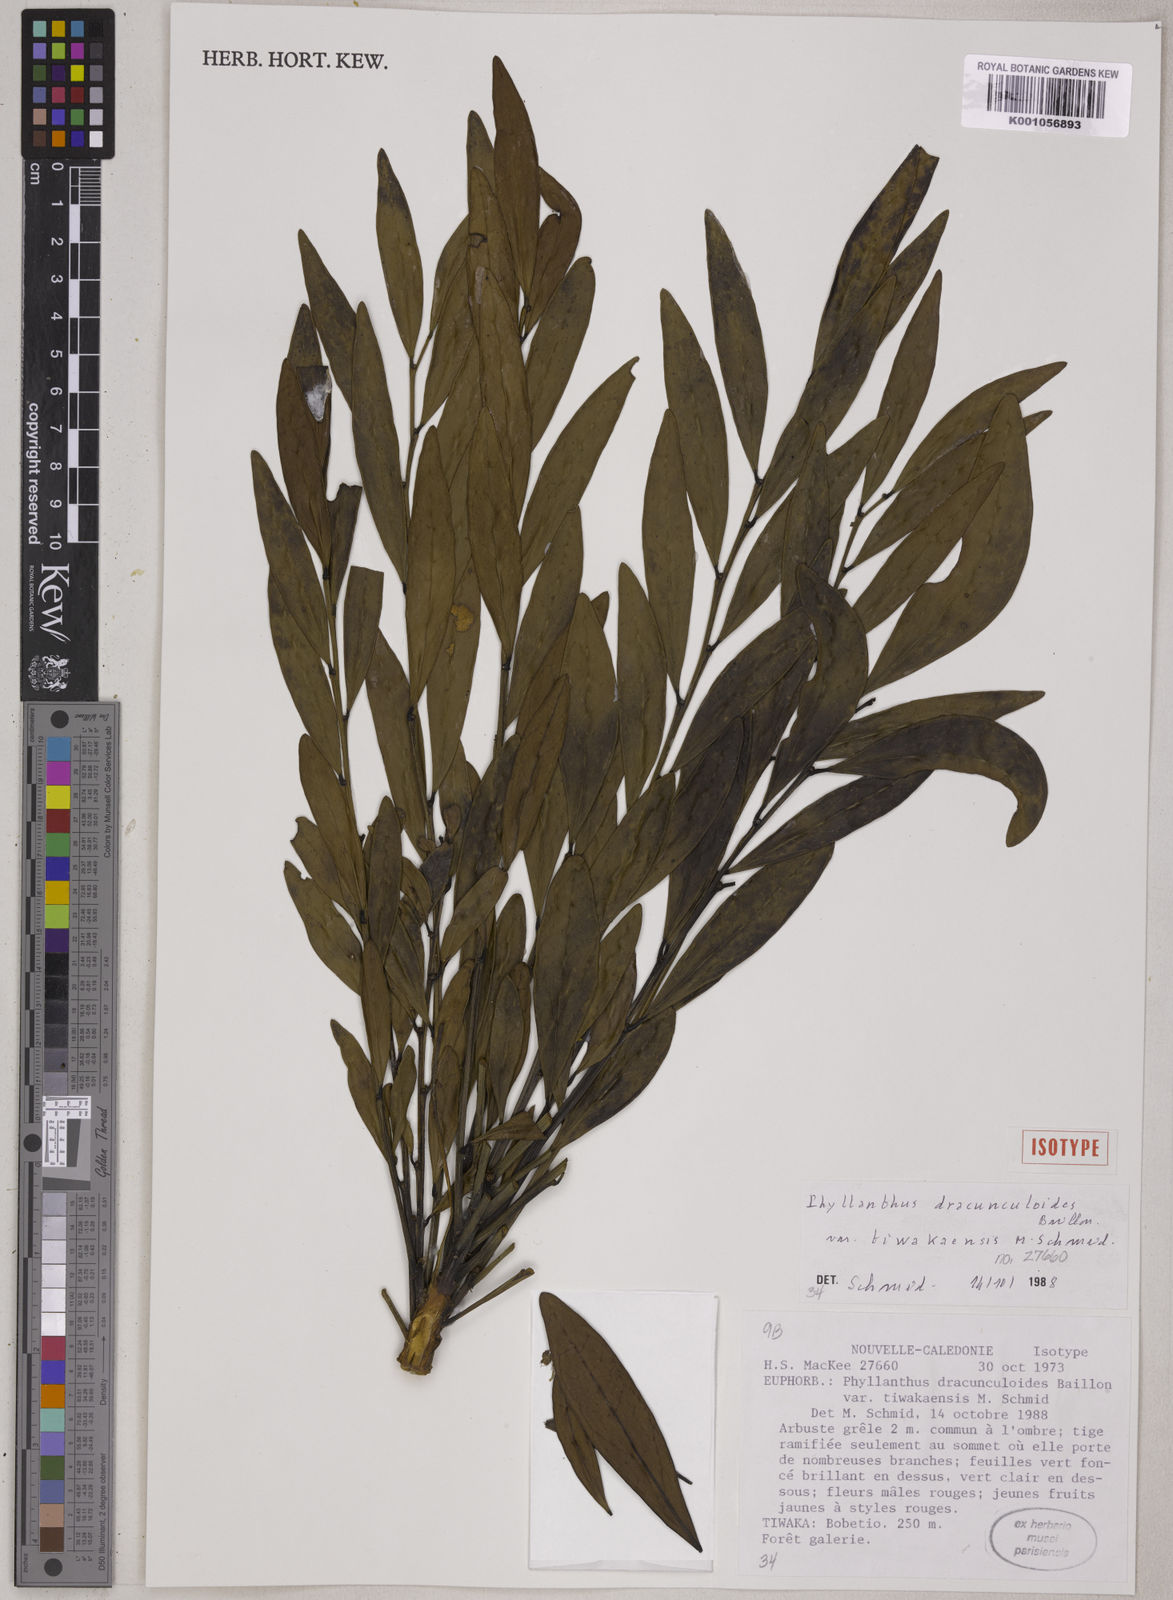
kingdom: Plantae
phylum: Tracheophyta
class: Magnoliopsida
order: Malpighiales
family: Phyllanthaceae
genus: Phyllanthus
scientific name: Phyllanthus dracunculoides
